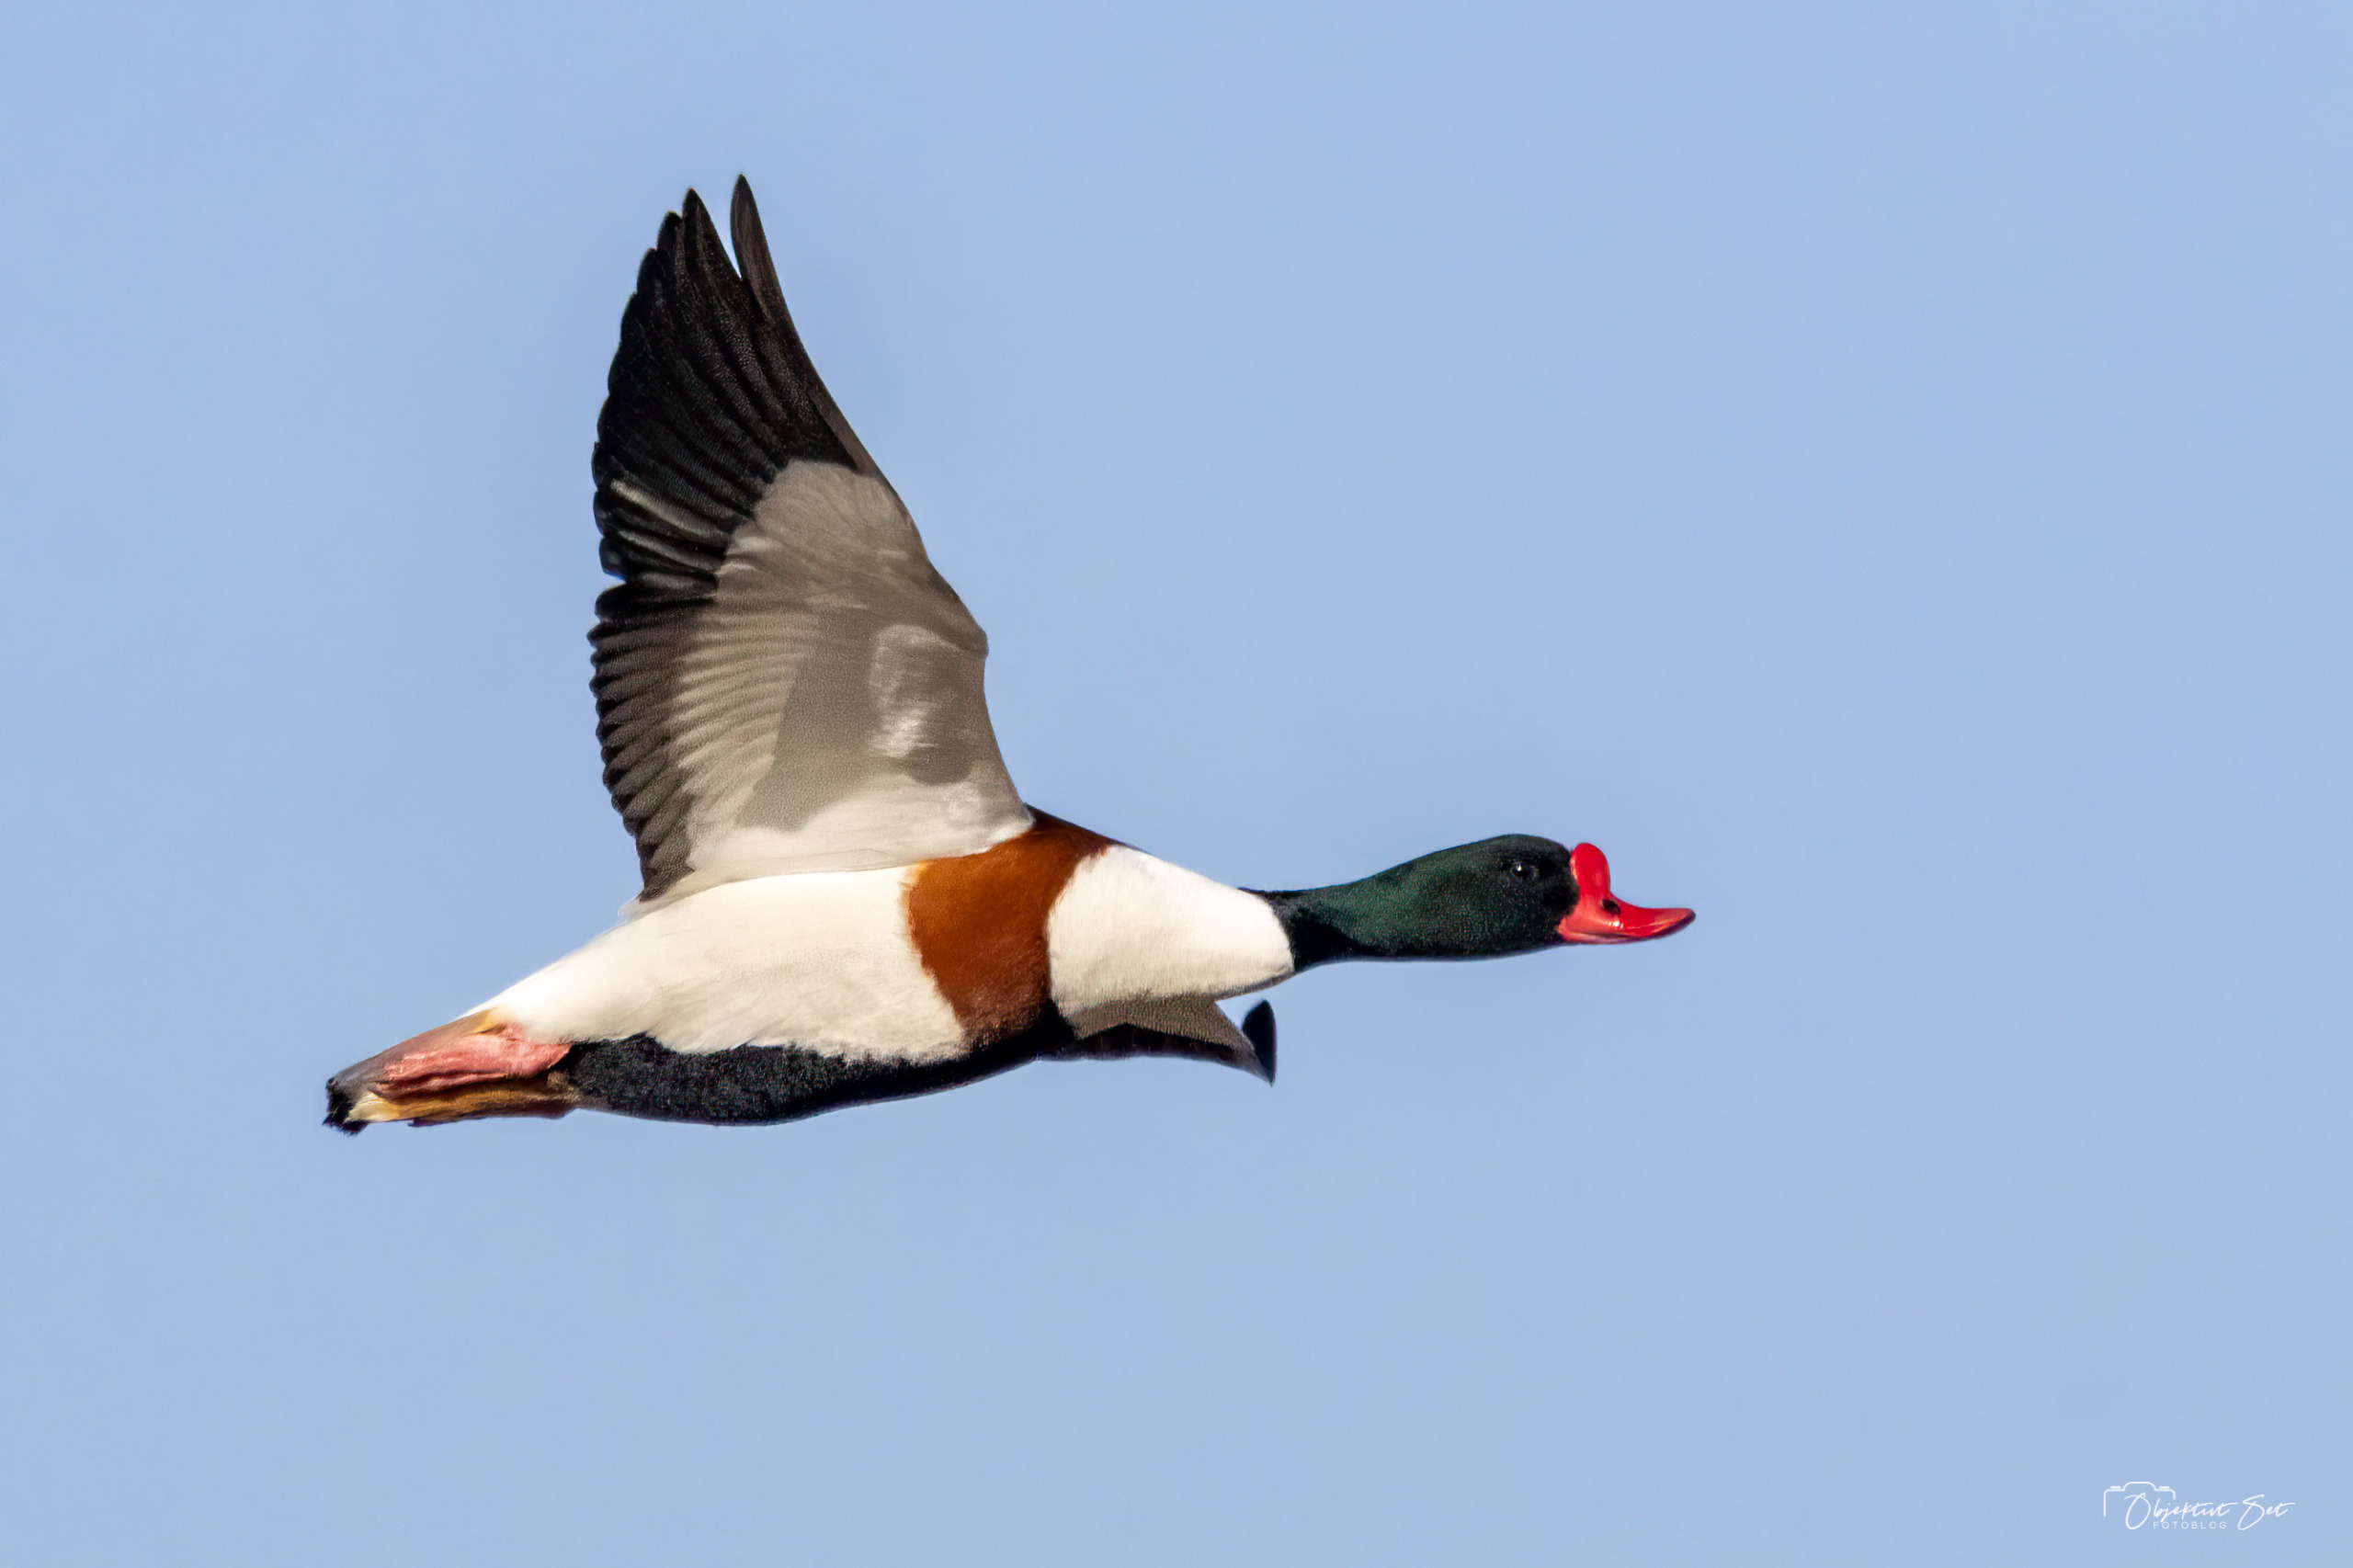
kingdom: Animalia
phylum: Chordata
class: Aves
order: Anseriformes
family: Anatidae
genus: Tadorna
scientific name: Tadorna tadorna
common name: Gravand
